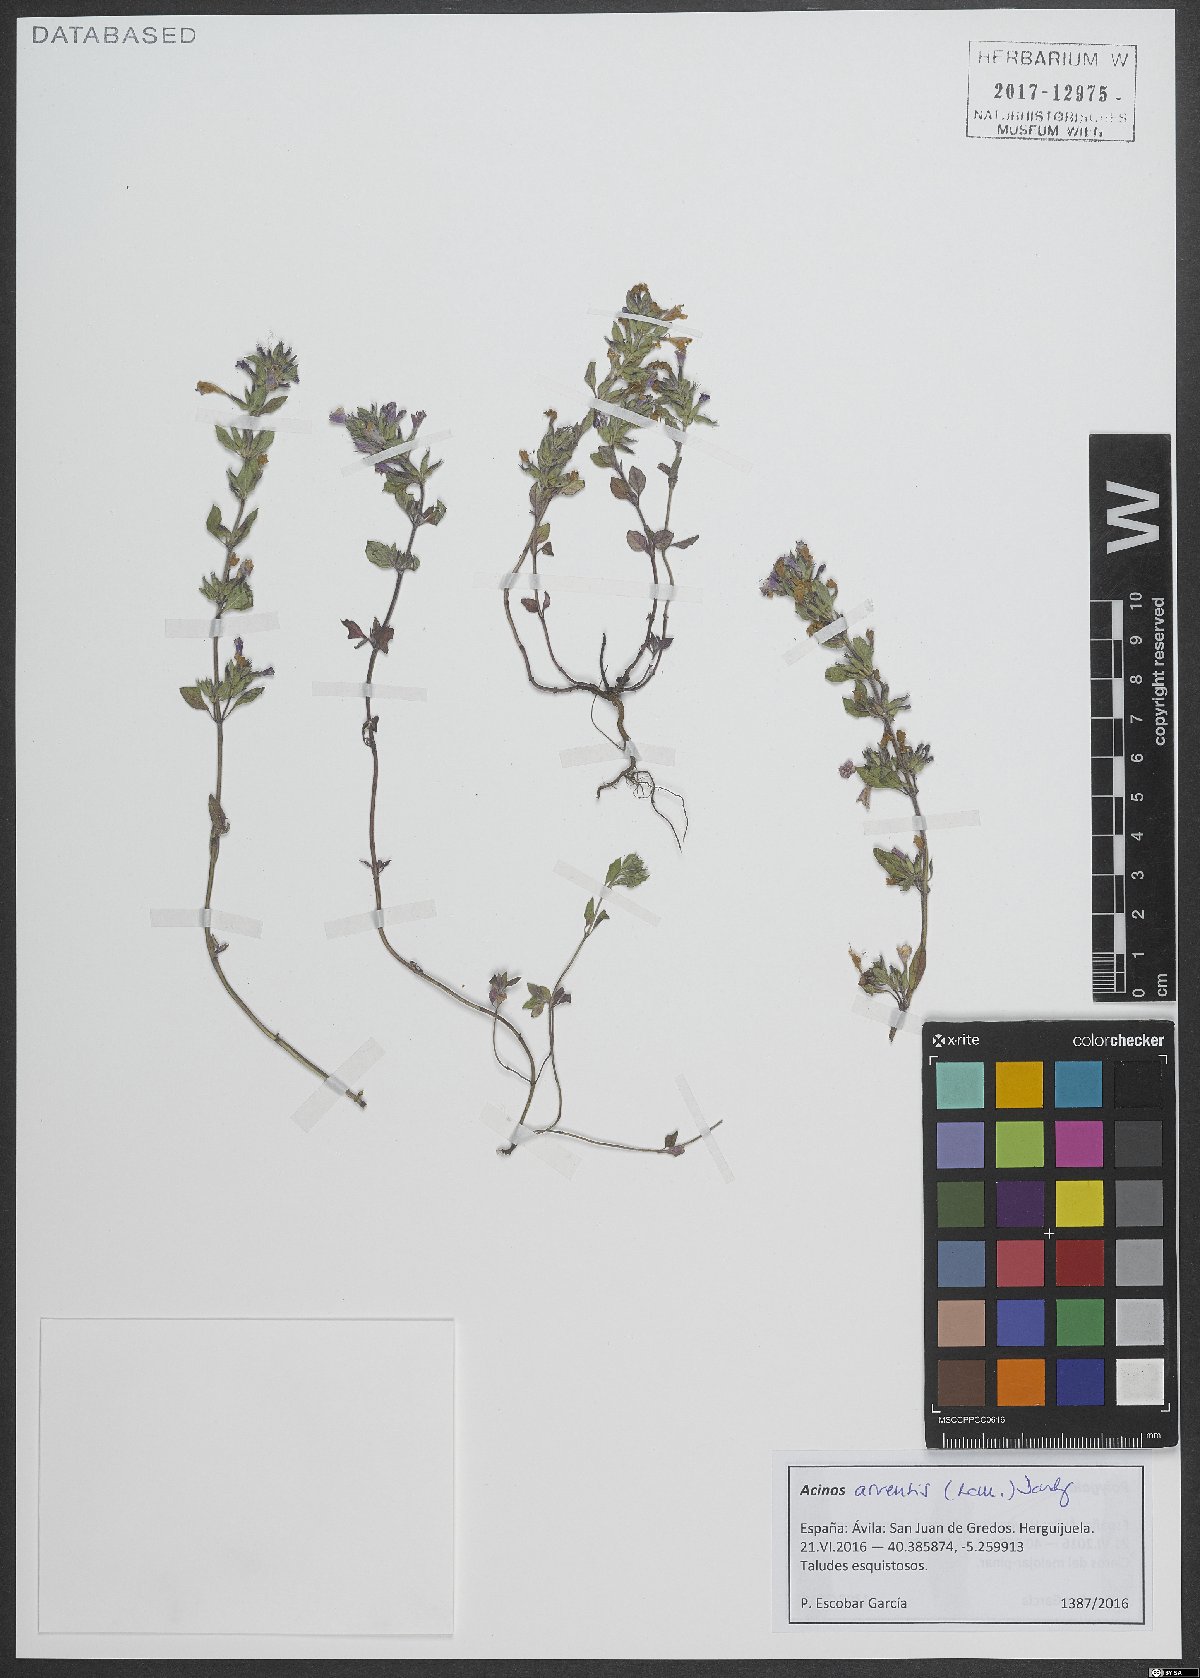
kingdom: Plantae
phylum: Tracheophyta
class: Magnoliopsida
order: Lamiales
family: Lamiaceae
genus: Clinopodium
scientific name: Clinopodium acinos
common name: Basil thyme
